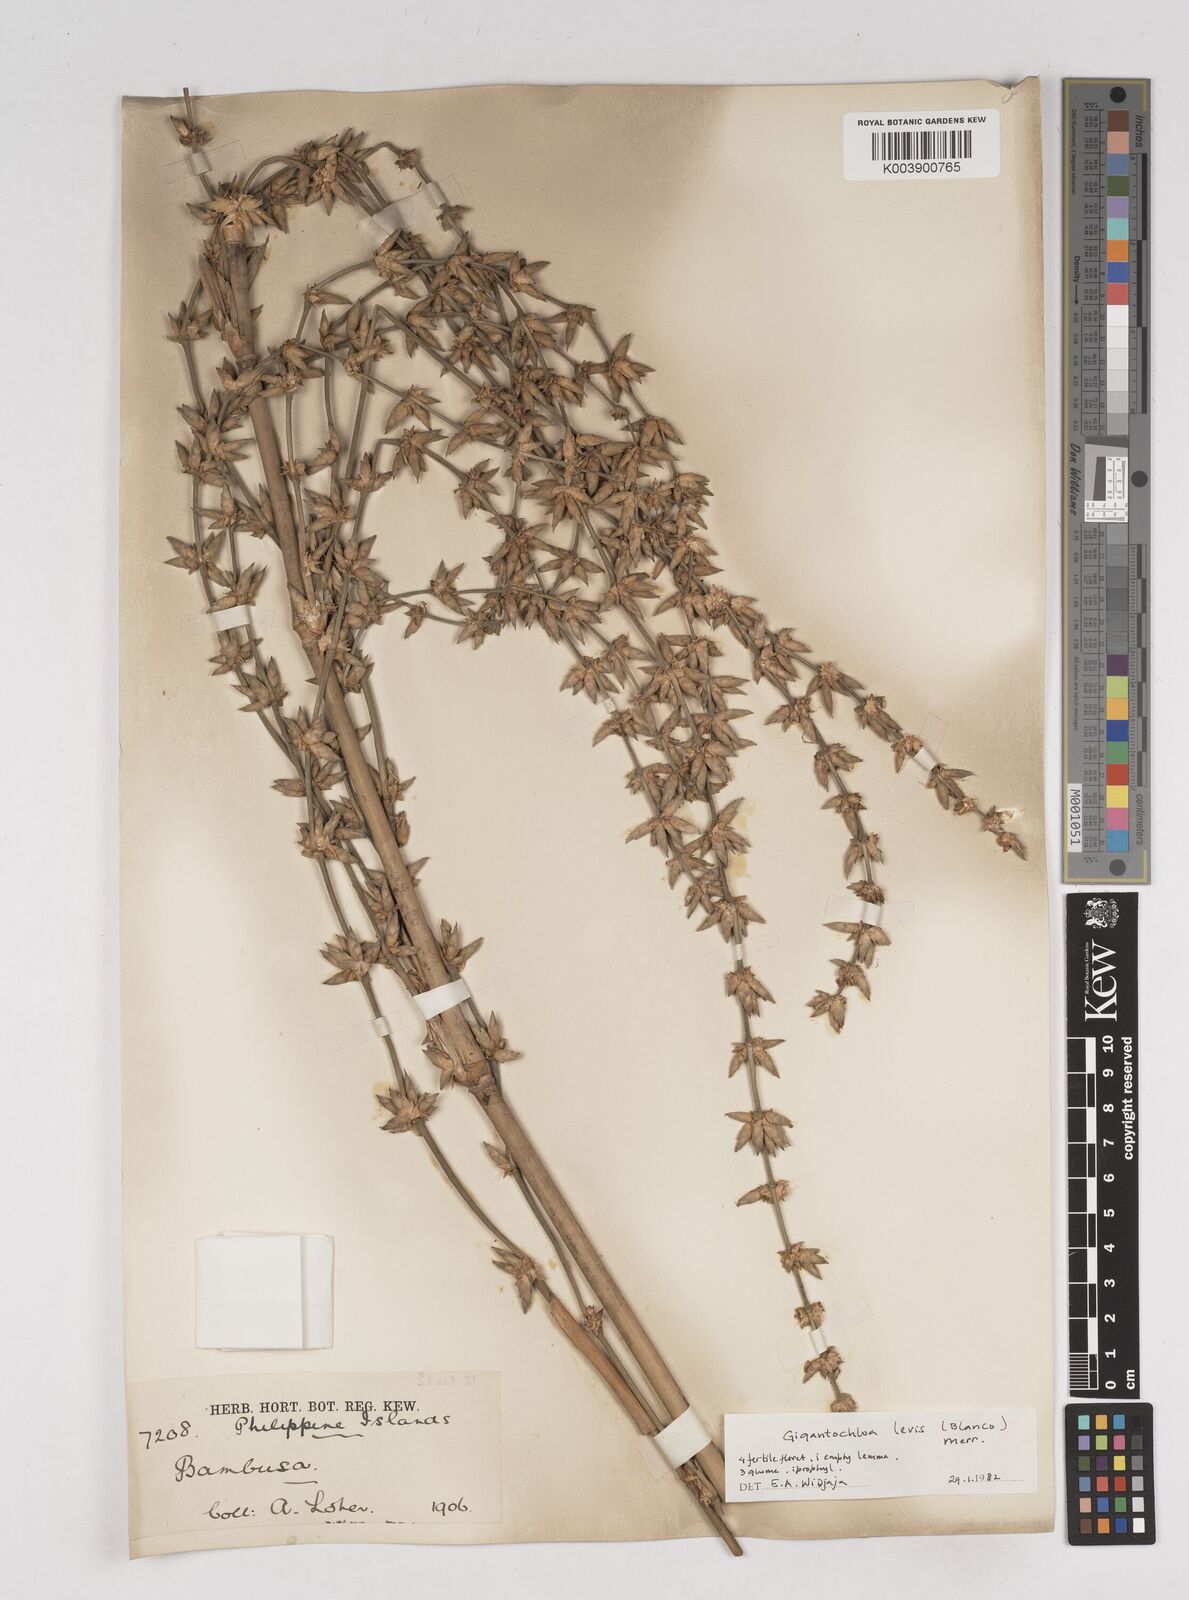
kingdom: Plantae
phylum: Tracheophyta
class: Liliopsida
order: Poales
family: Poaceae
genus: Gigantochloa
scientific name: Gigantochloa
